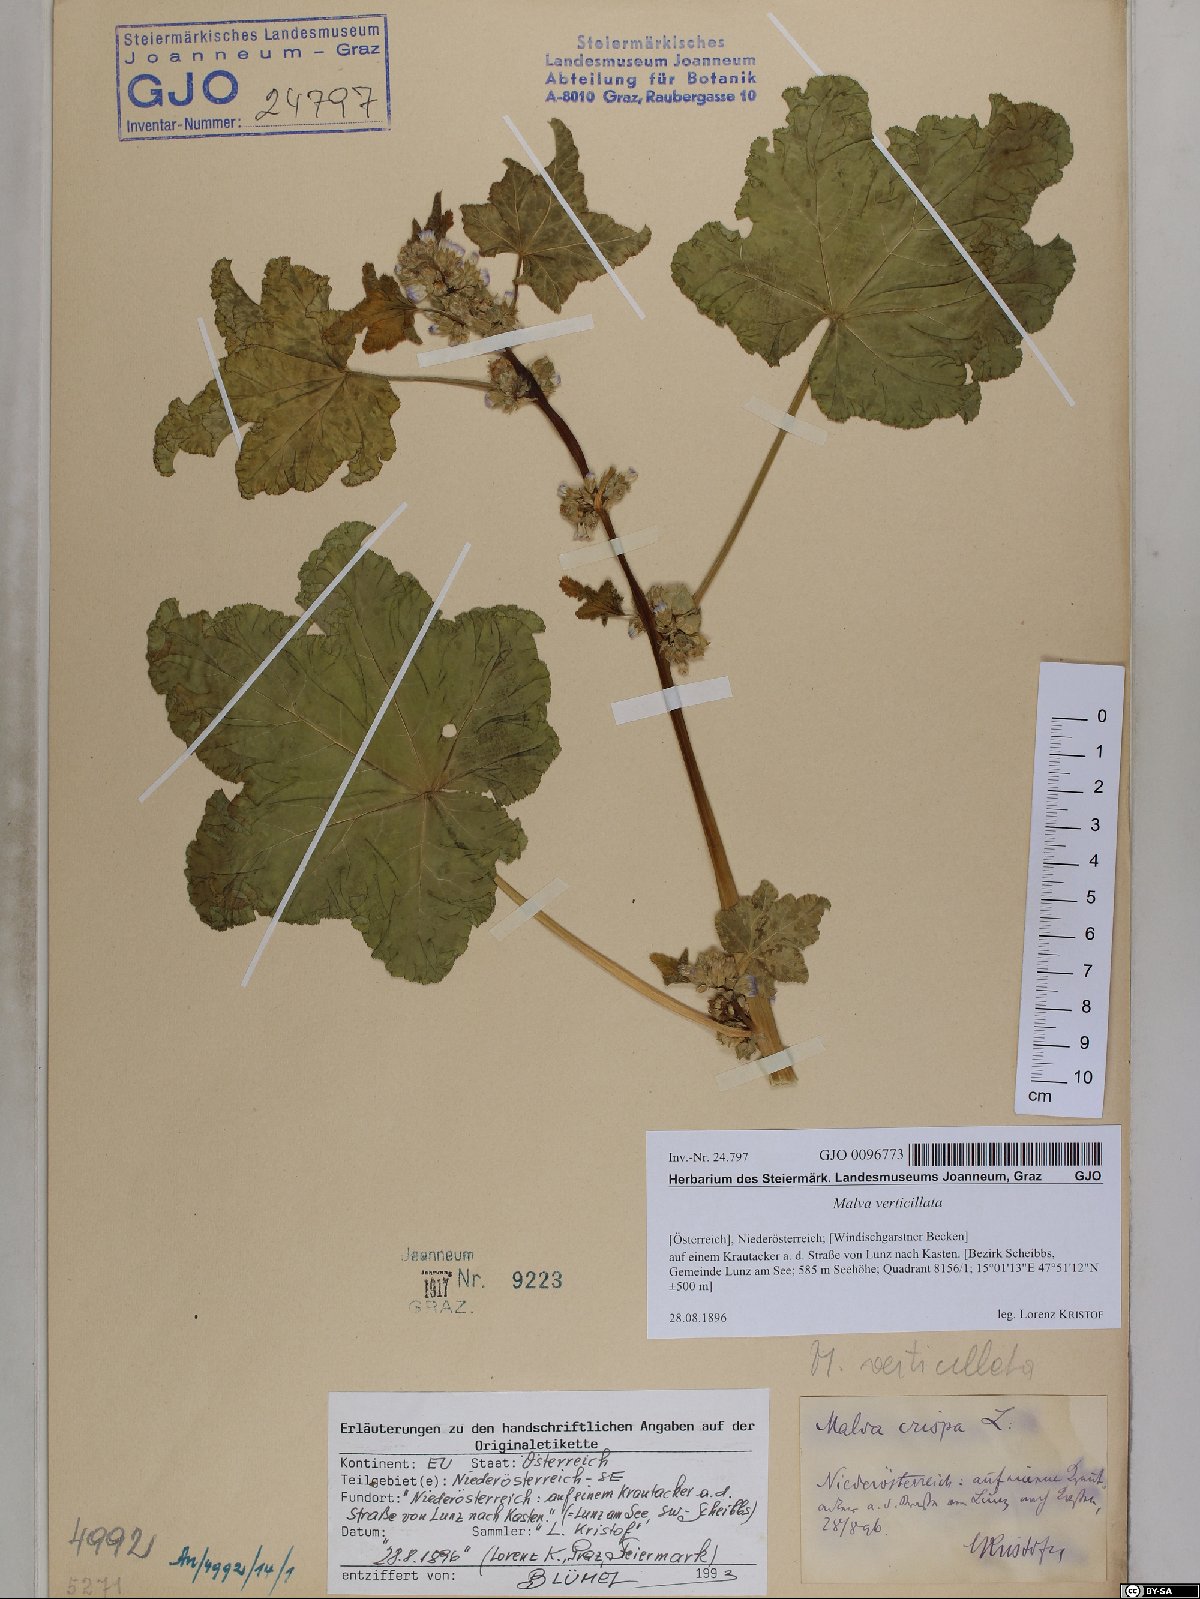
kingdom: Plantae
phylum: Tracheophyta
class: Magnoliopsida
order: Malvales
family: Malvaceae
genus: Malva
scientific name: Malva verticillata
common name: Chinese mallow
